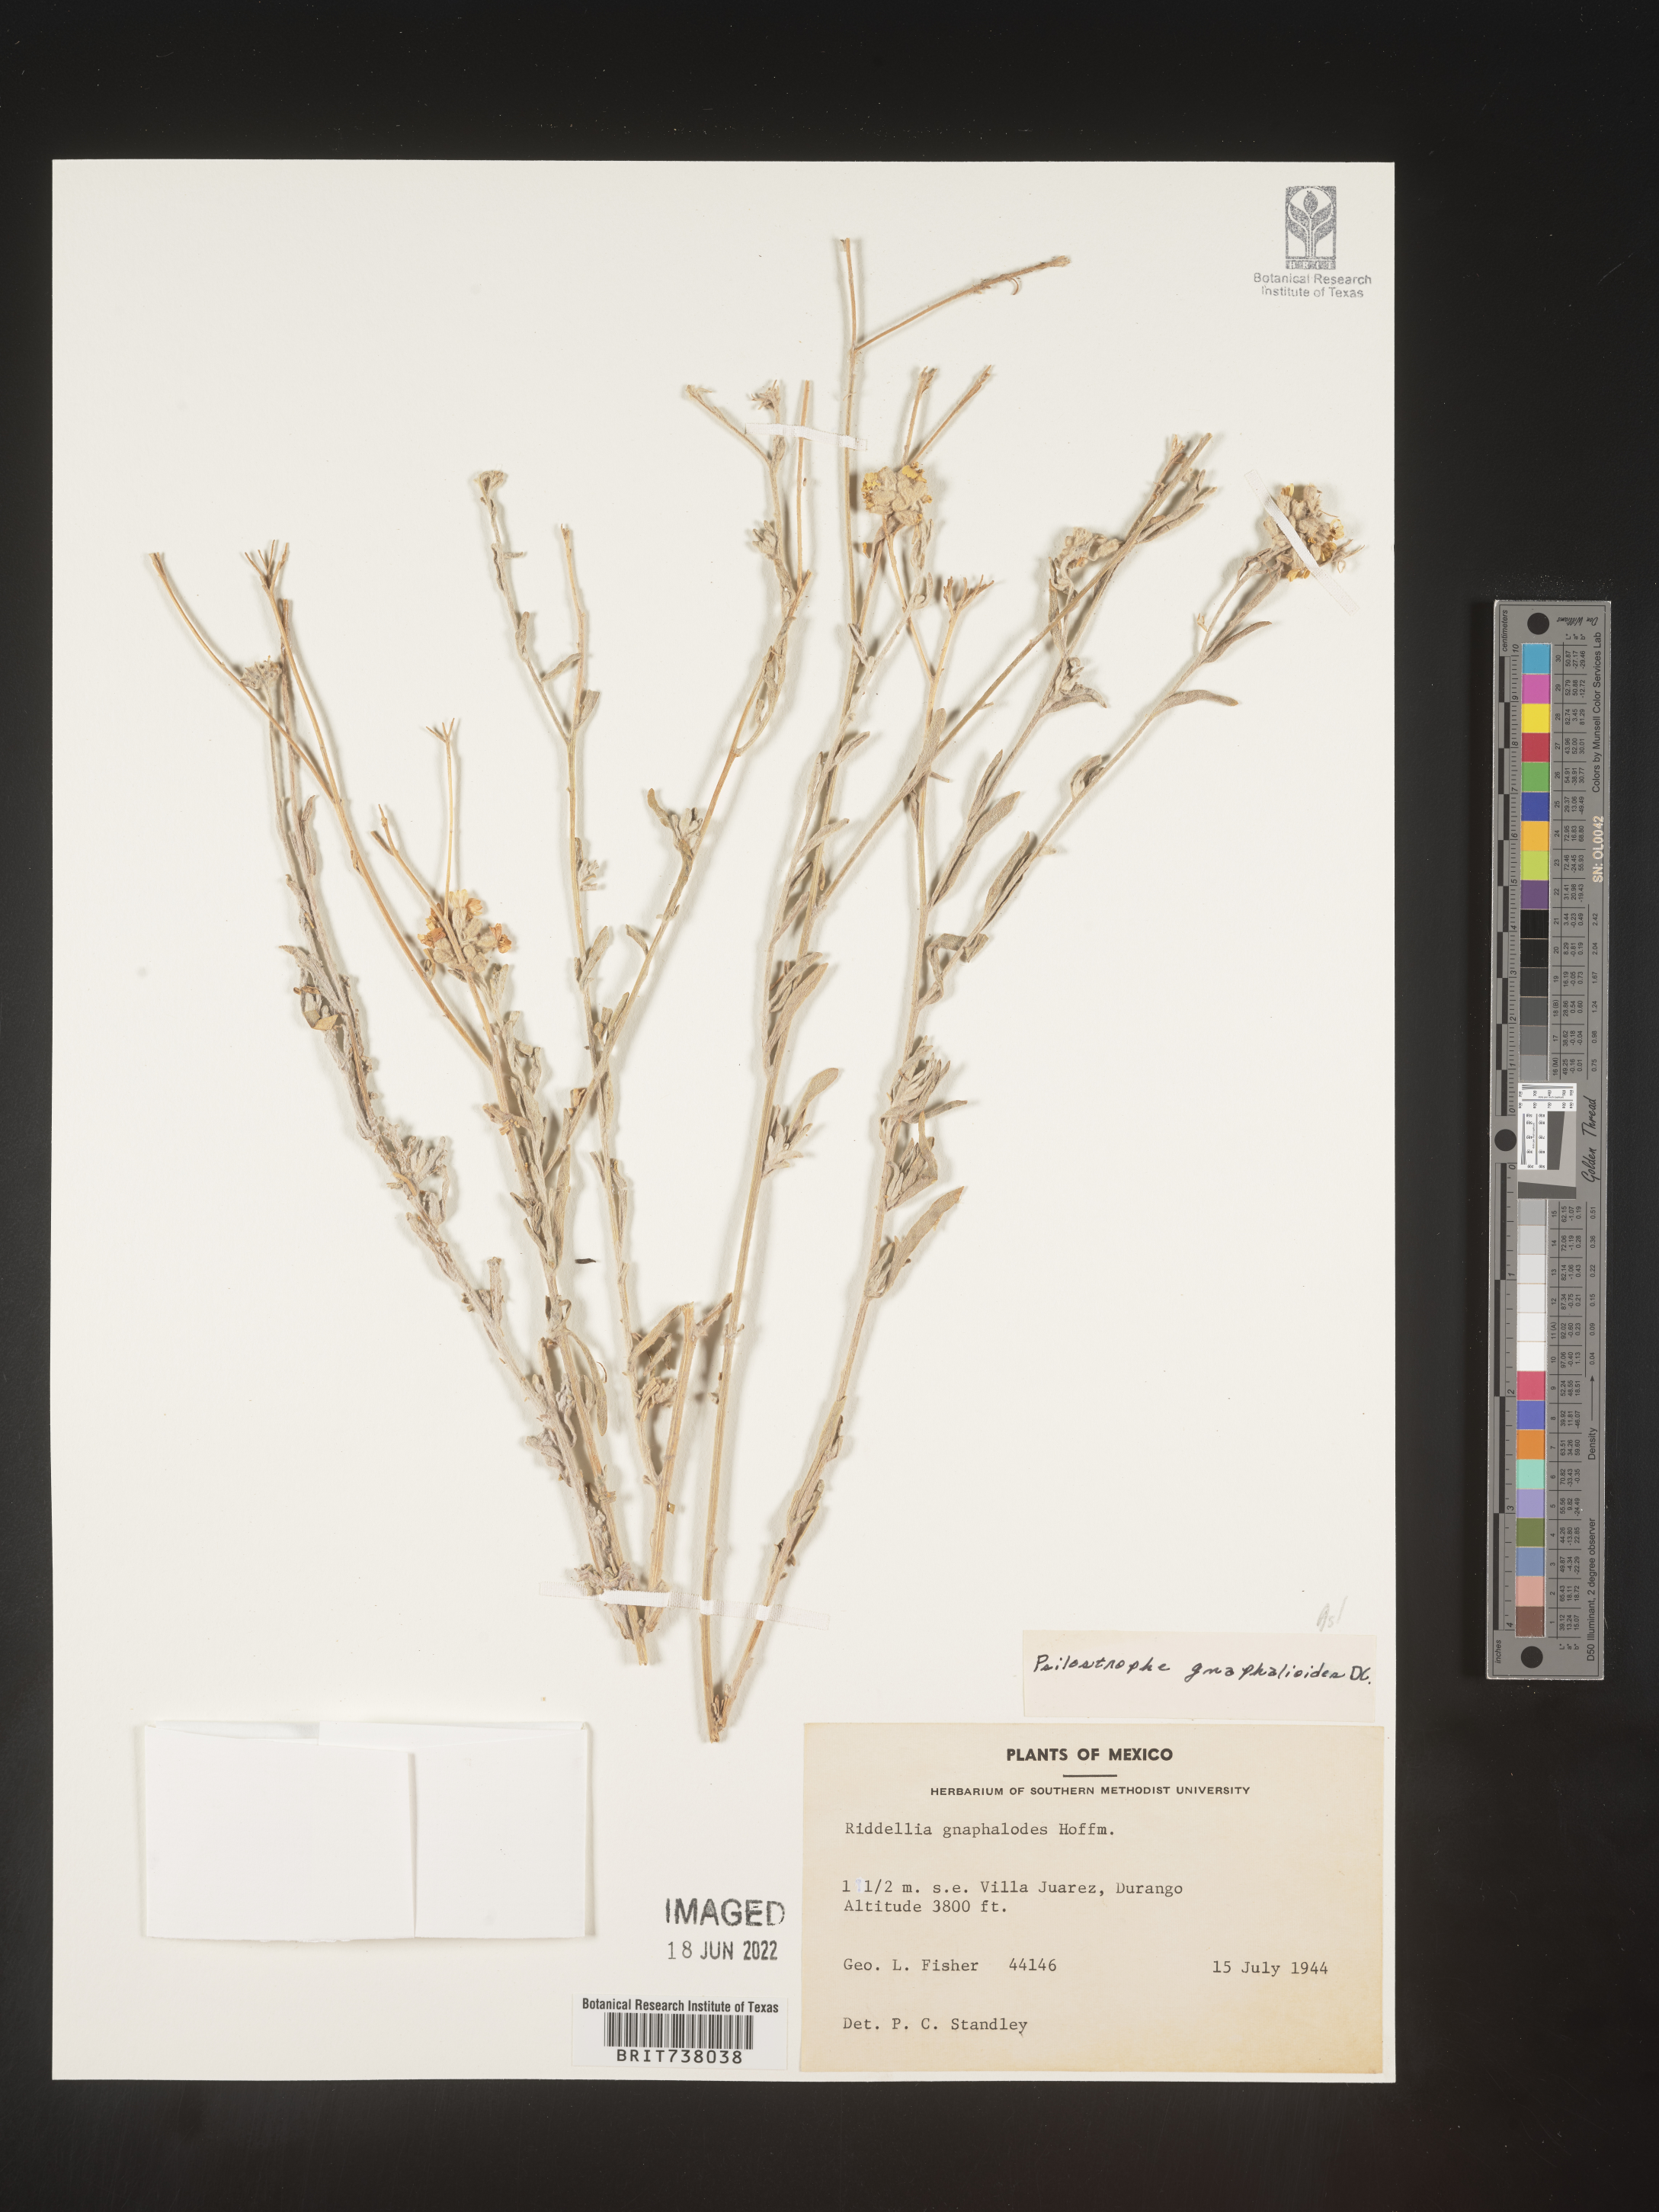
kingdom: Plantae
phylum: Tracheophyta
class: Magnoliopsida
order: Asterales
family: Asteraceae
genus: Psilostrophe
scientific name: Psilostrophe
